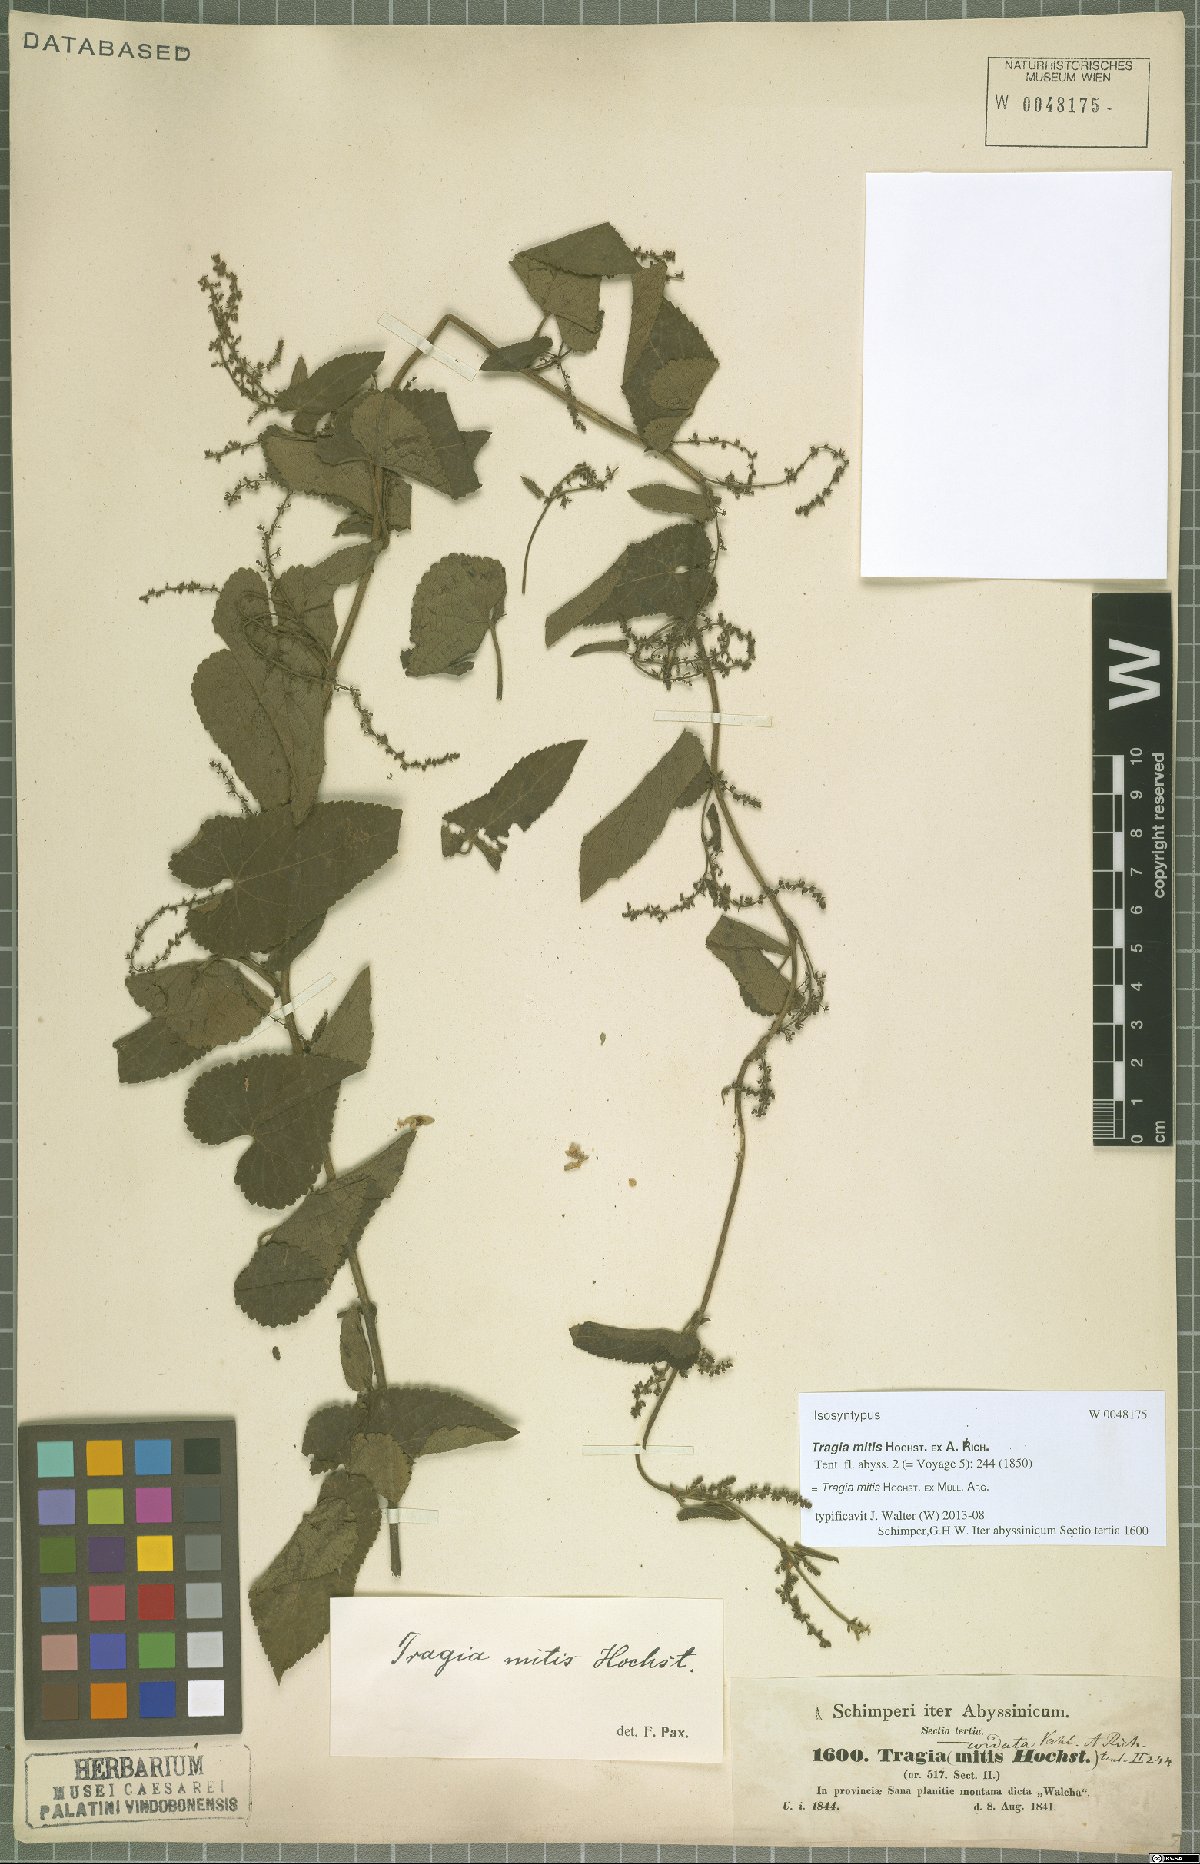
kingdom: Plantae
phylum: Tracheophyta
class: Magnoliopsida
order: Malpighiales
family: Euphorbiaceae
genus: Tragia
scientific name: Tragia mitis
